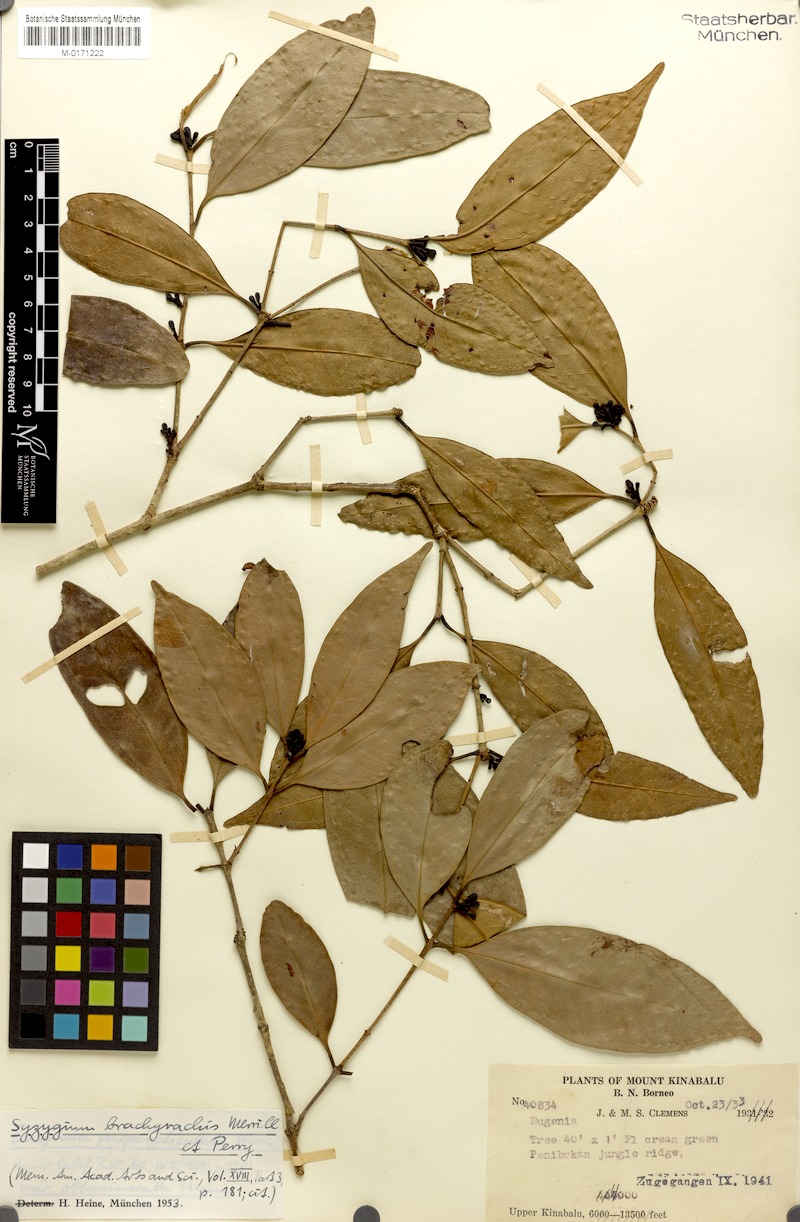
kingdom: Plantae
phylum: Tracheophyta
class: Magnoliopsida
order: Myrtales
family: Myrtaceae
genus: Syzygium
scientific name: Syzygium brachyrachis
